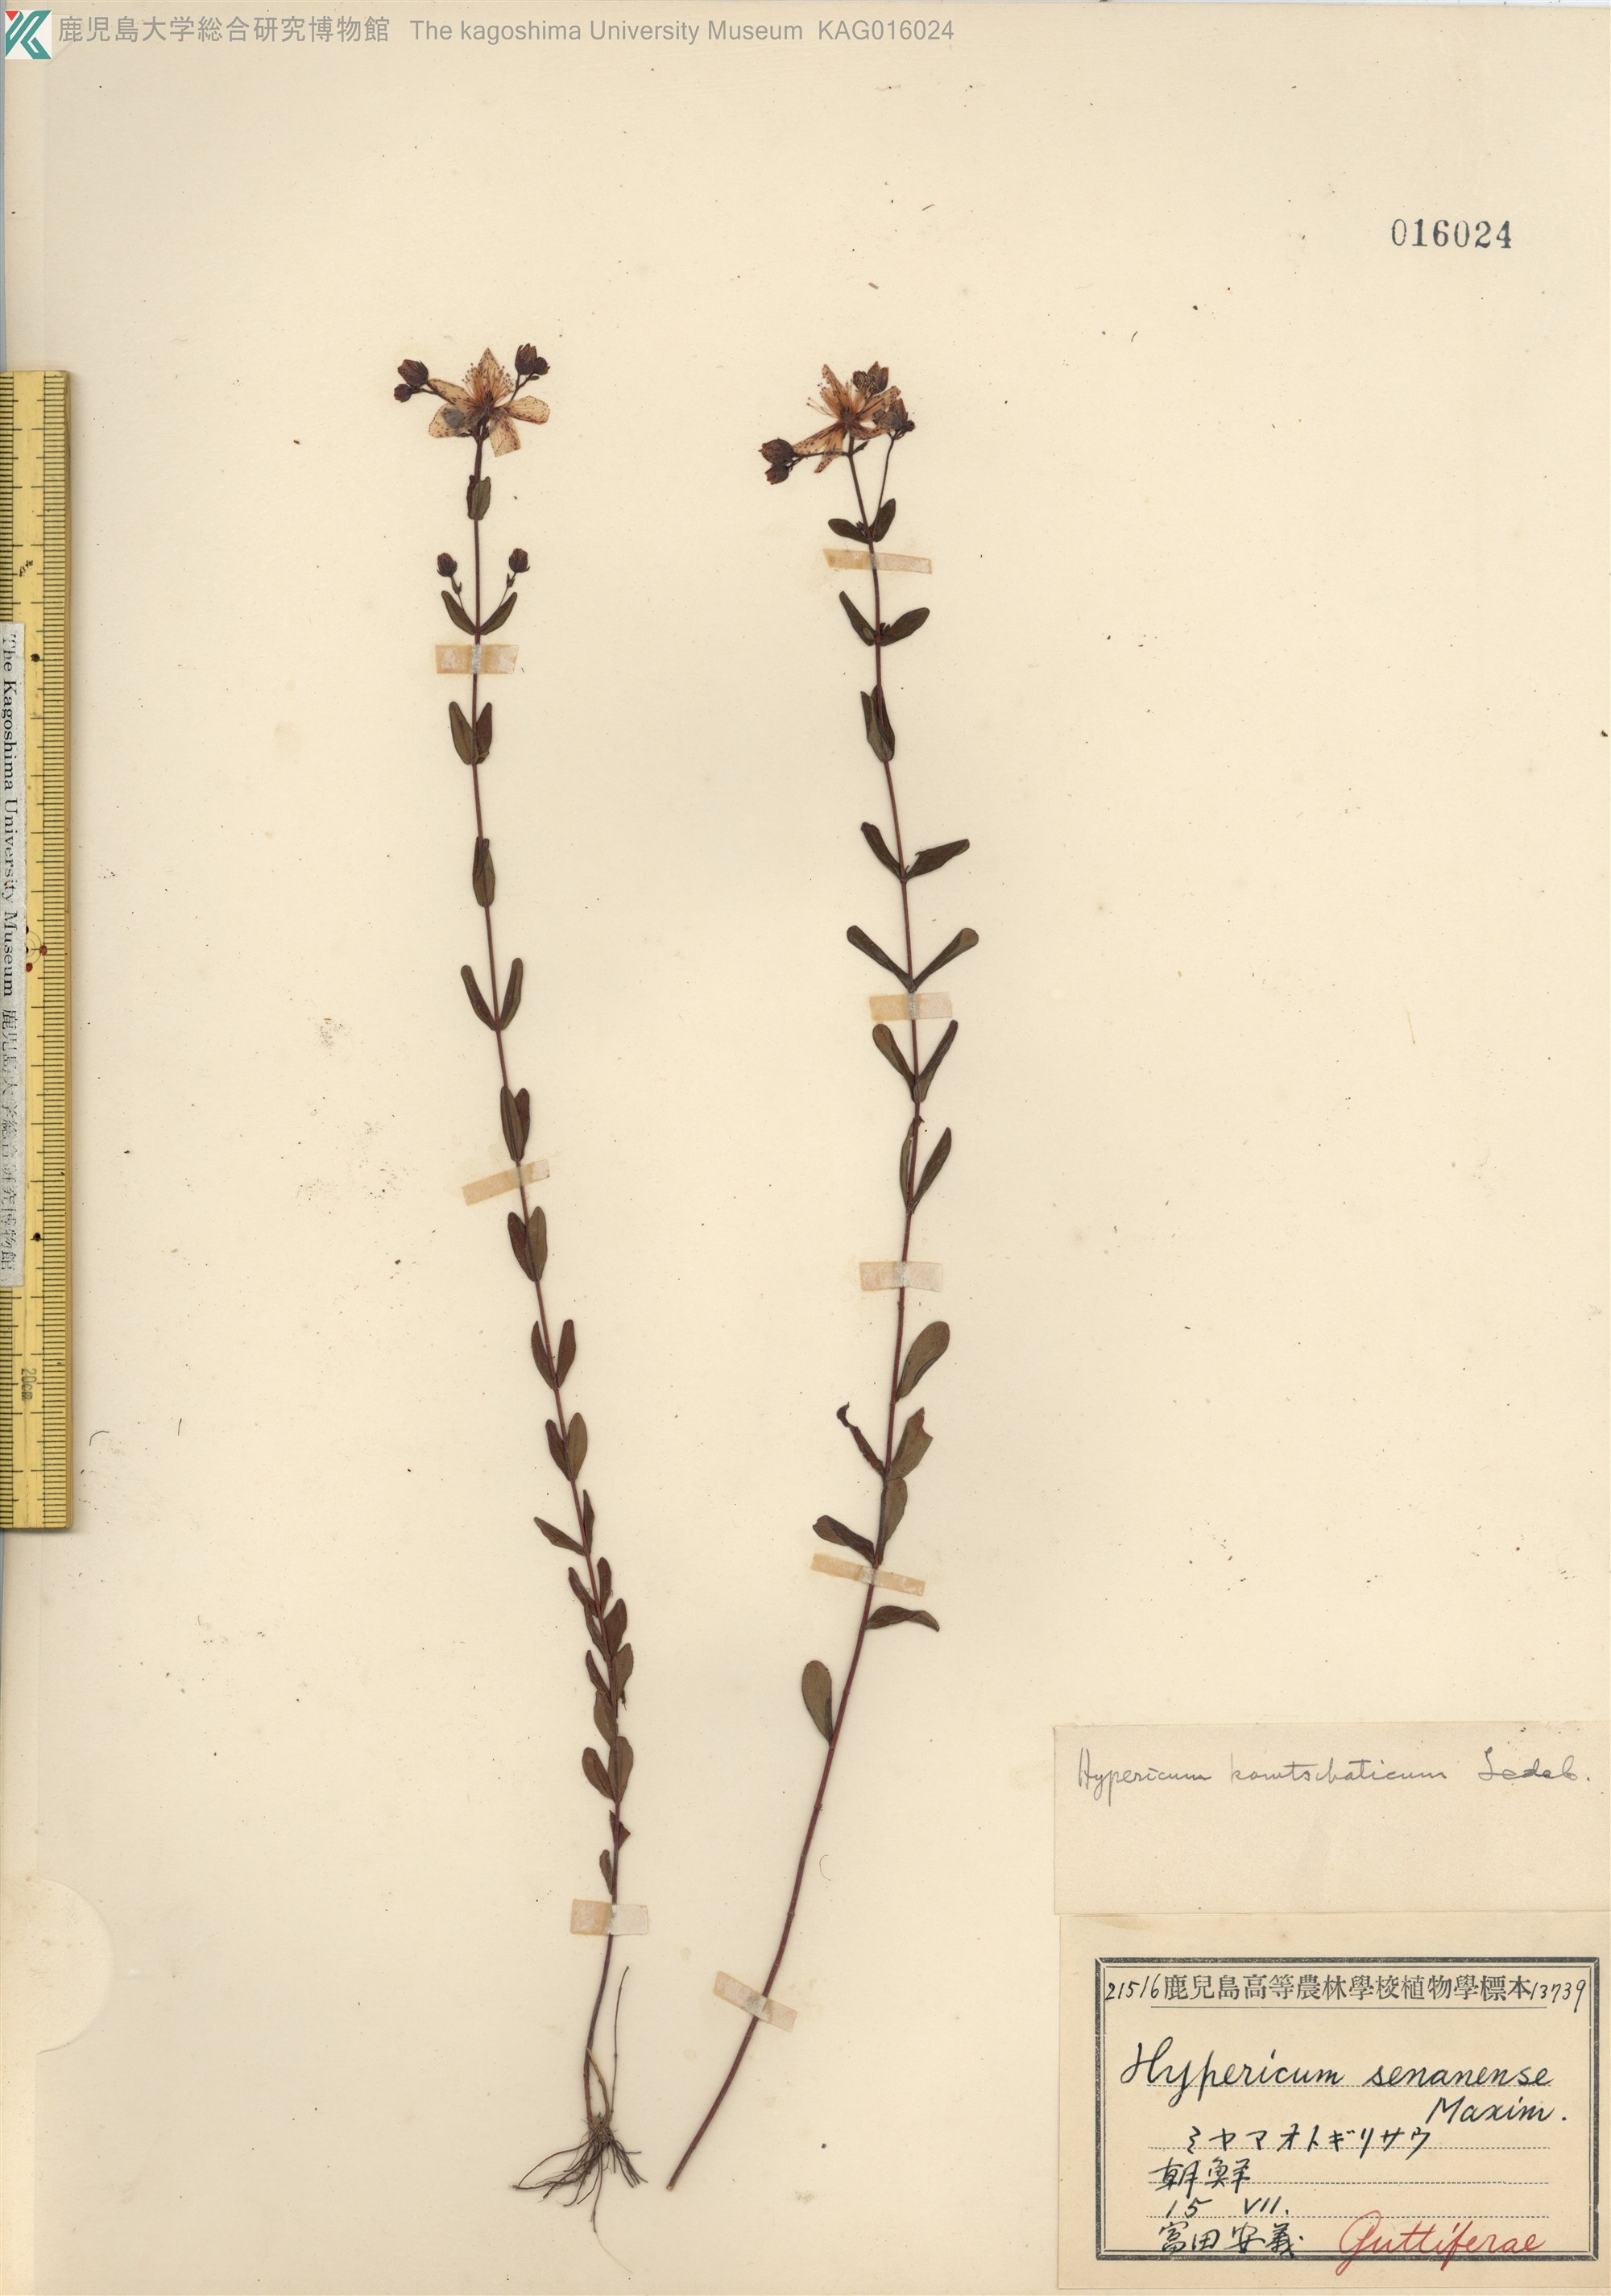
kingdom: Plantae
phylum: Tracheophyta
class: Magnoliopsida
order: Malpighiales
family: Hypericaceae
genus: Hypericum
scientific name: Hypericum kamtschaticum
